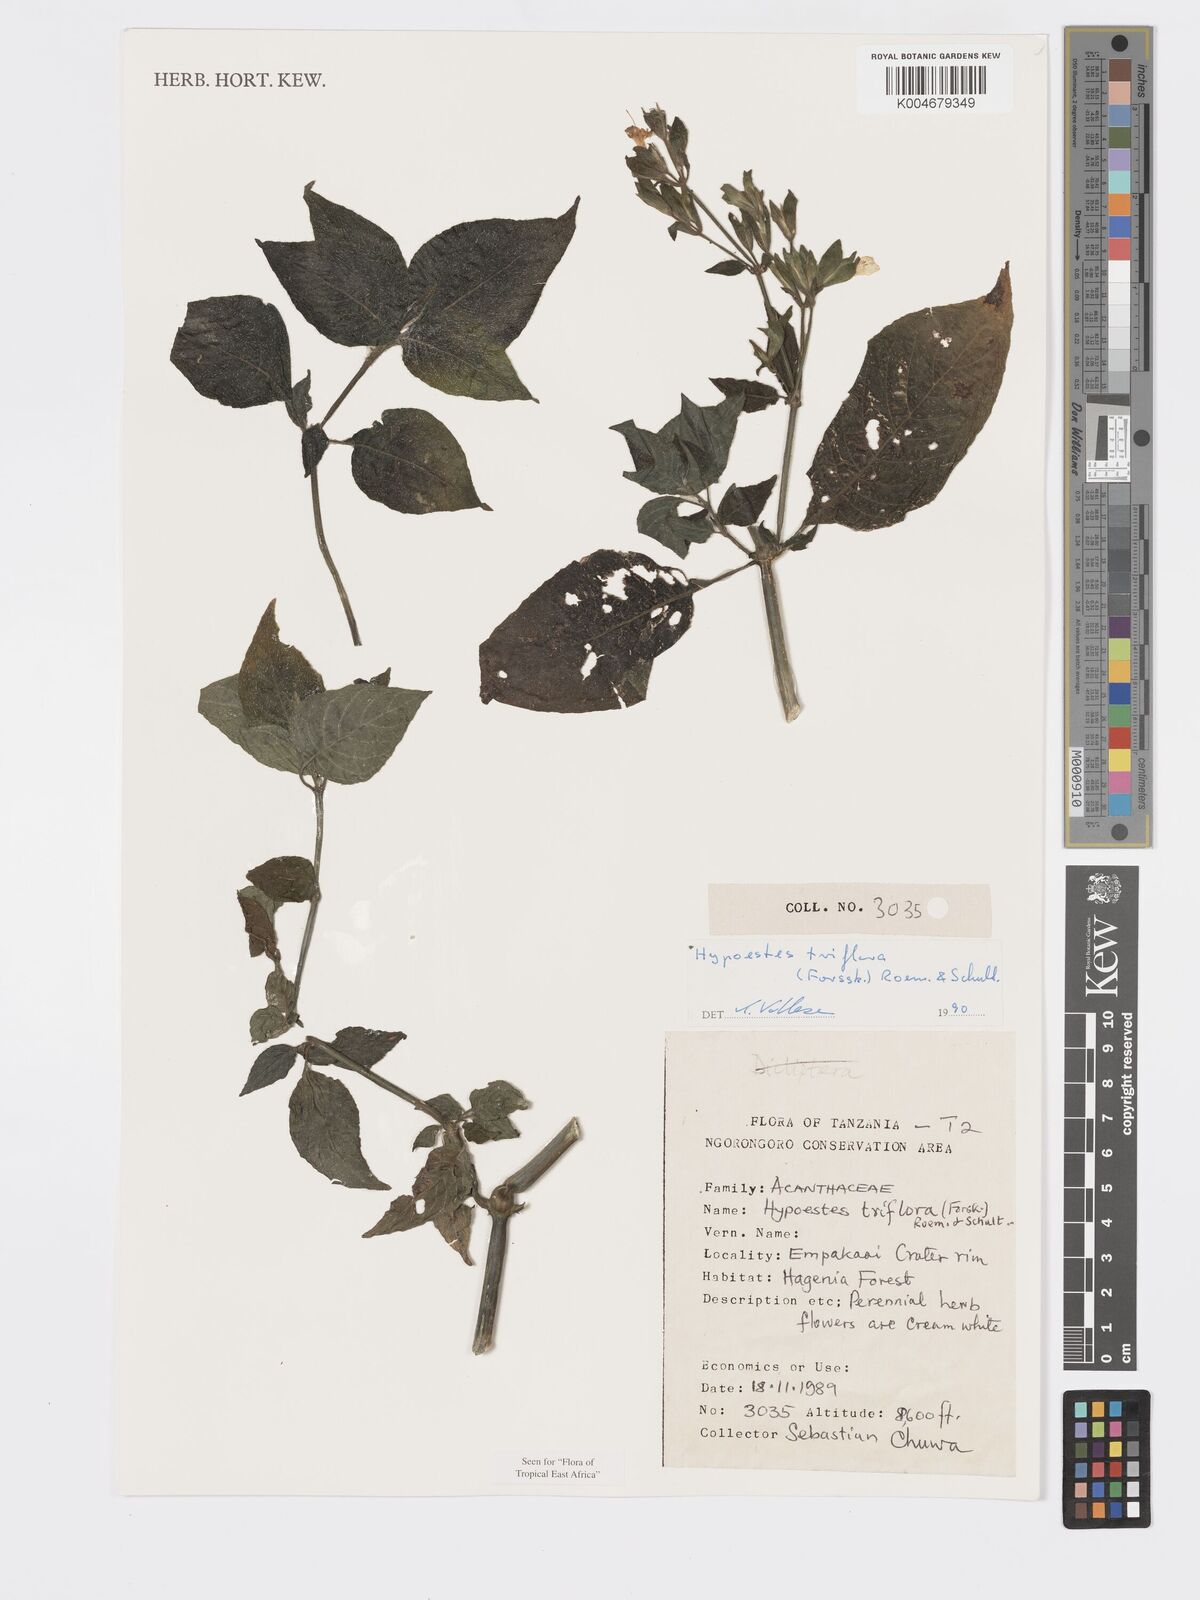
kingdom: Plantae
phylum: Tracheophyta
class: Magnoliopsida
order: Lamiales
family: Acanthaceae
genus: Hypoestes
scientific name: Hypoestes triflora
